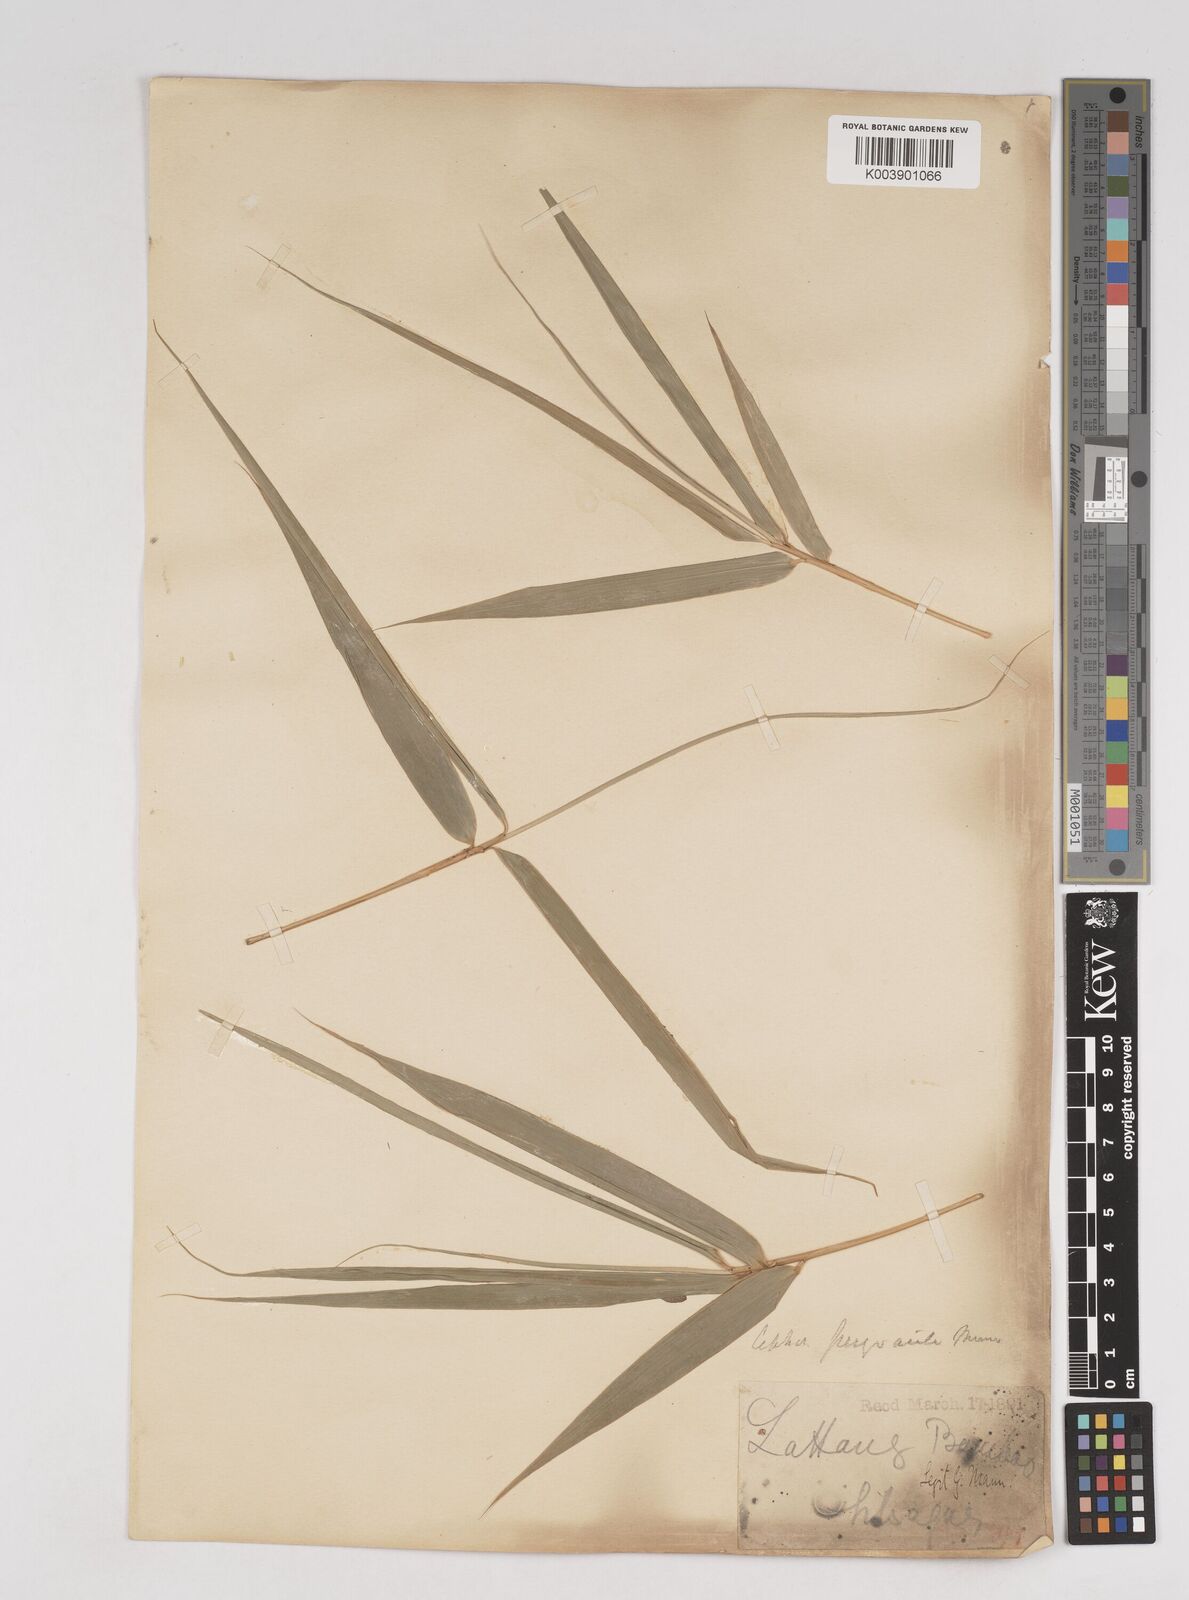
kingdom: Plantae
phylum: Tracheophyta
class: Liliopsida
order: Poales
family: Poaceae
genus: Schizostachyum
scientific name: Schizostachyum pergracile
